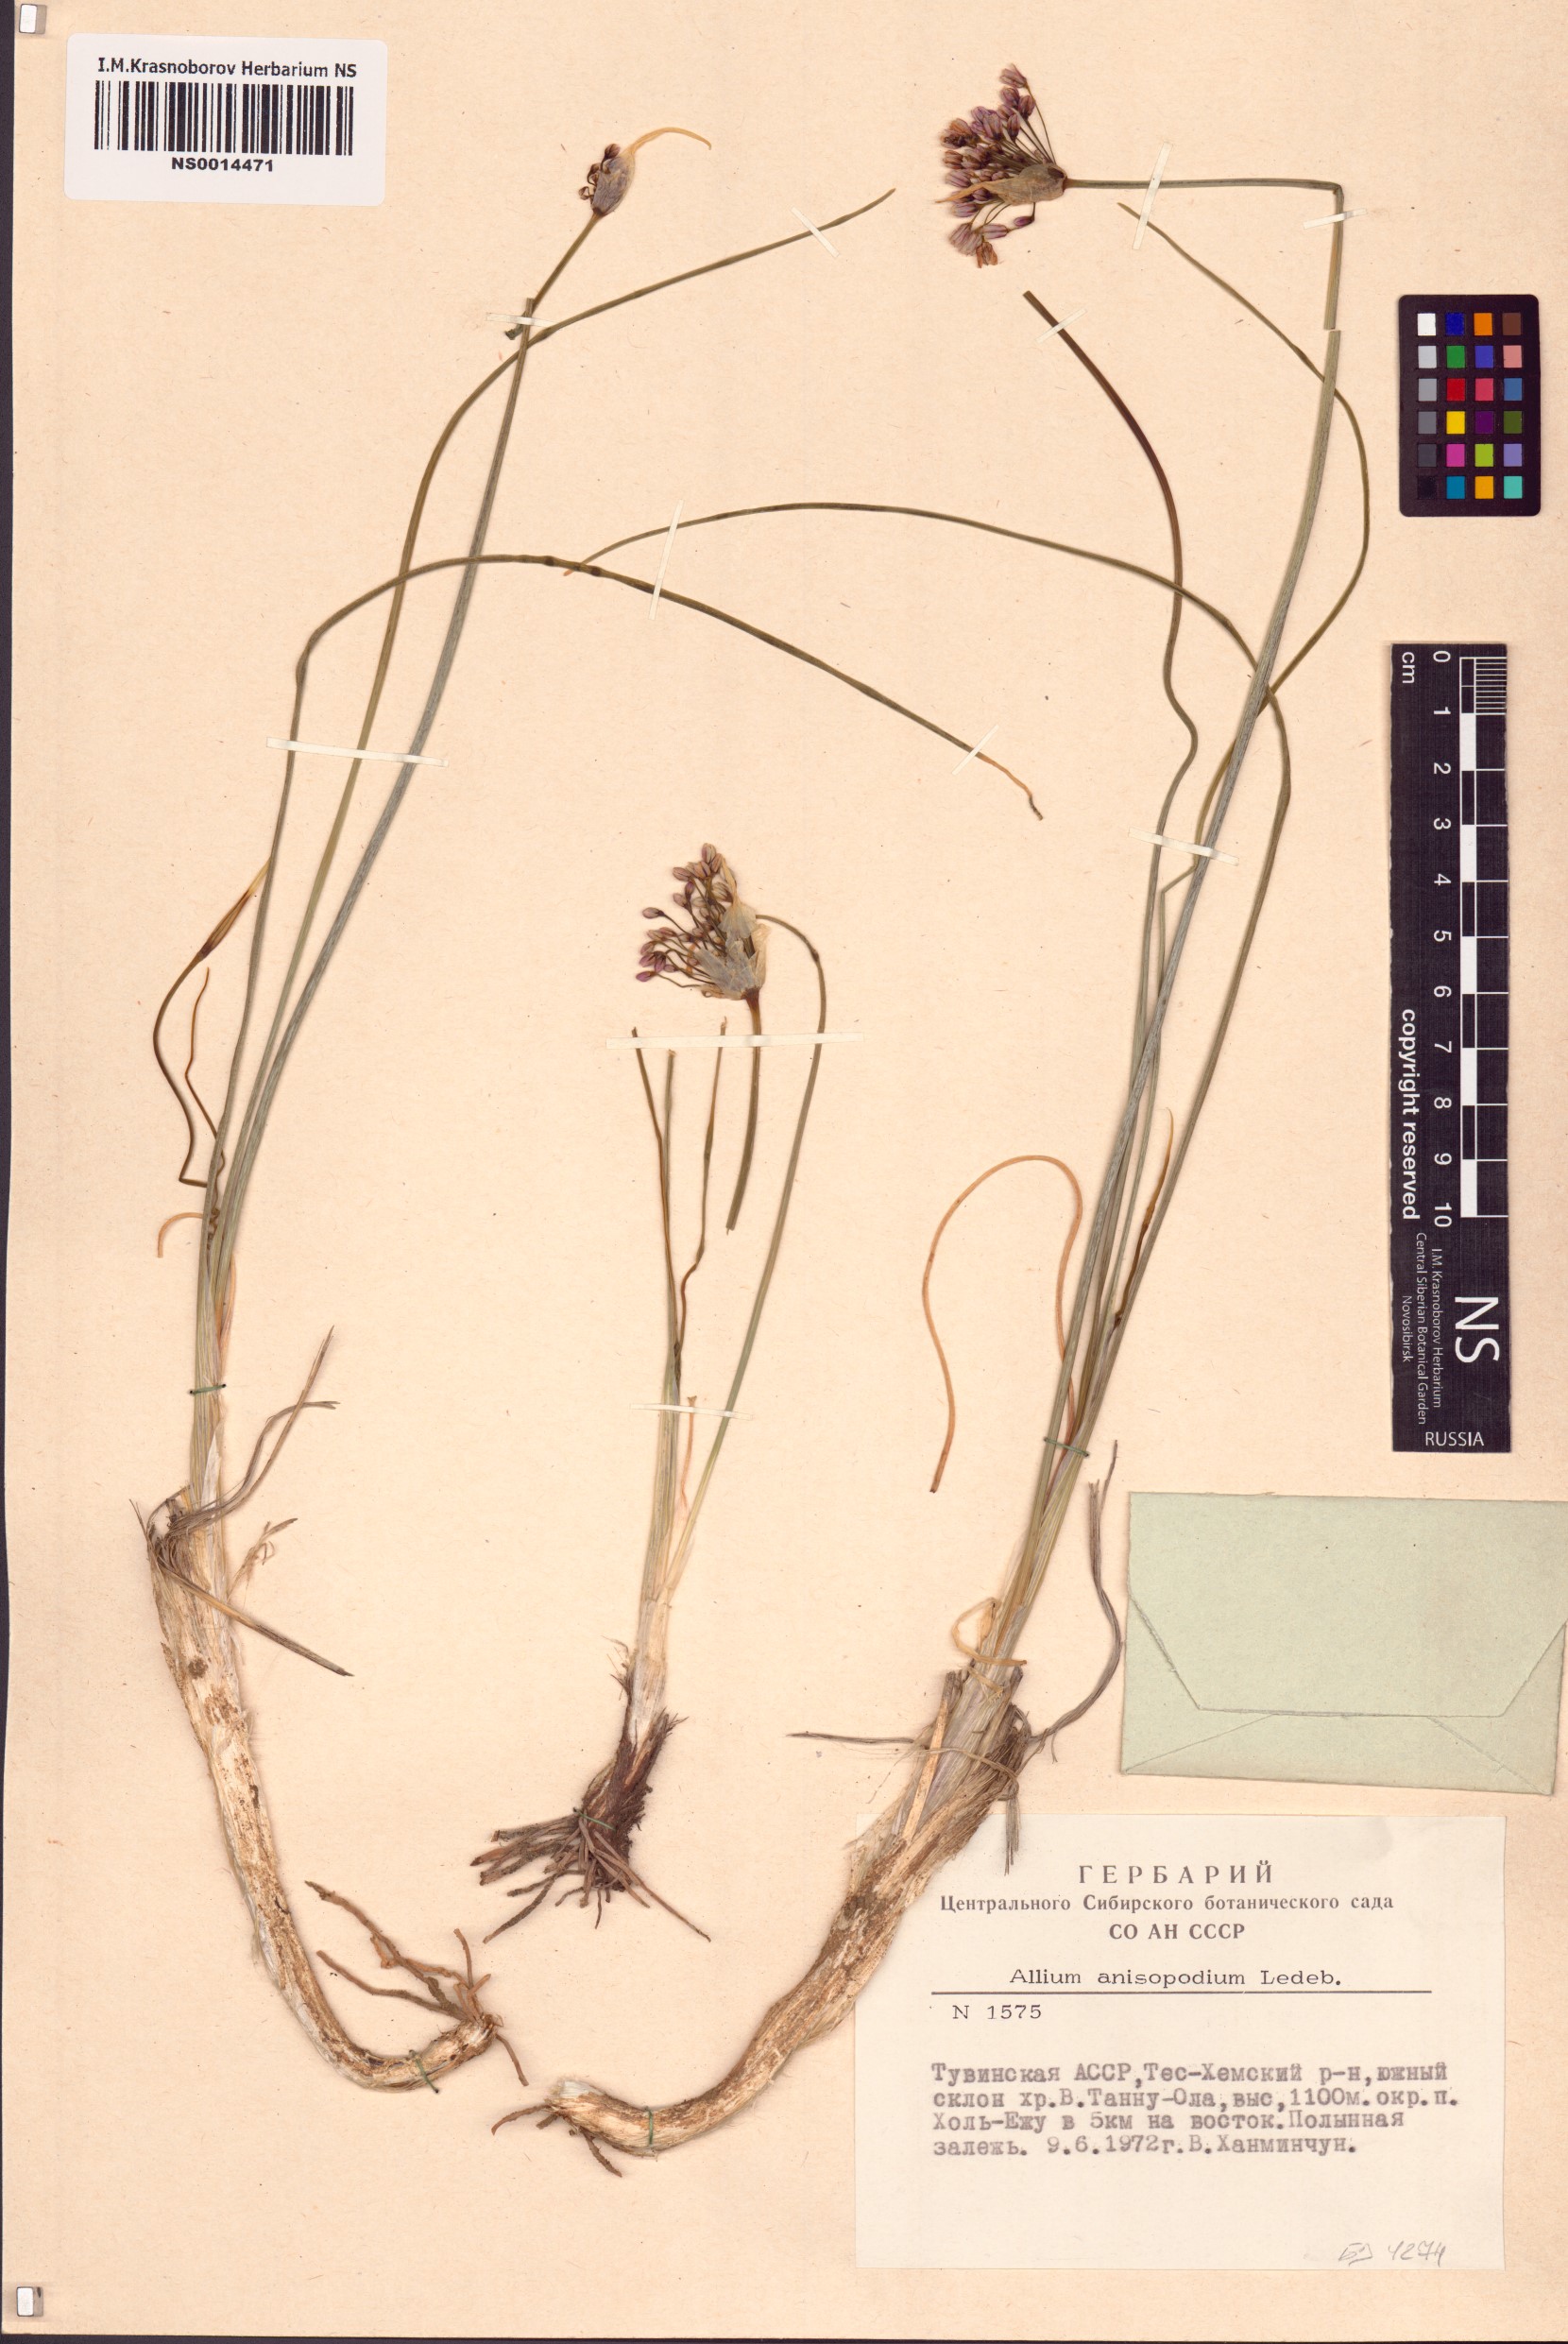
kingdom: Plantae
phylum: Tracheophyta
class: Liliopsida
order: Asparagales
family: Amaryllidaceae
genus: Allium
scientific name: Allium anisopodium
